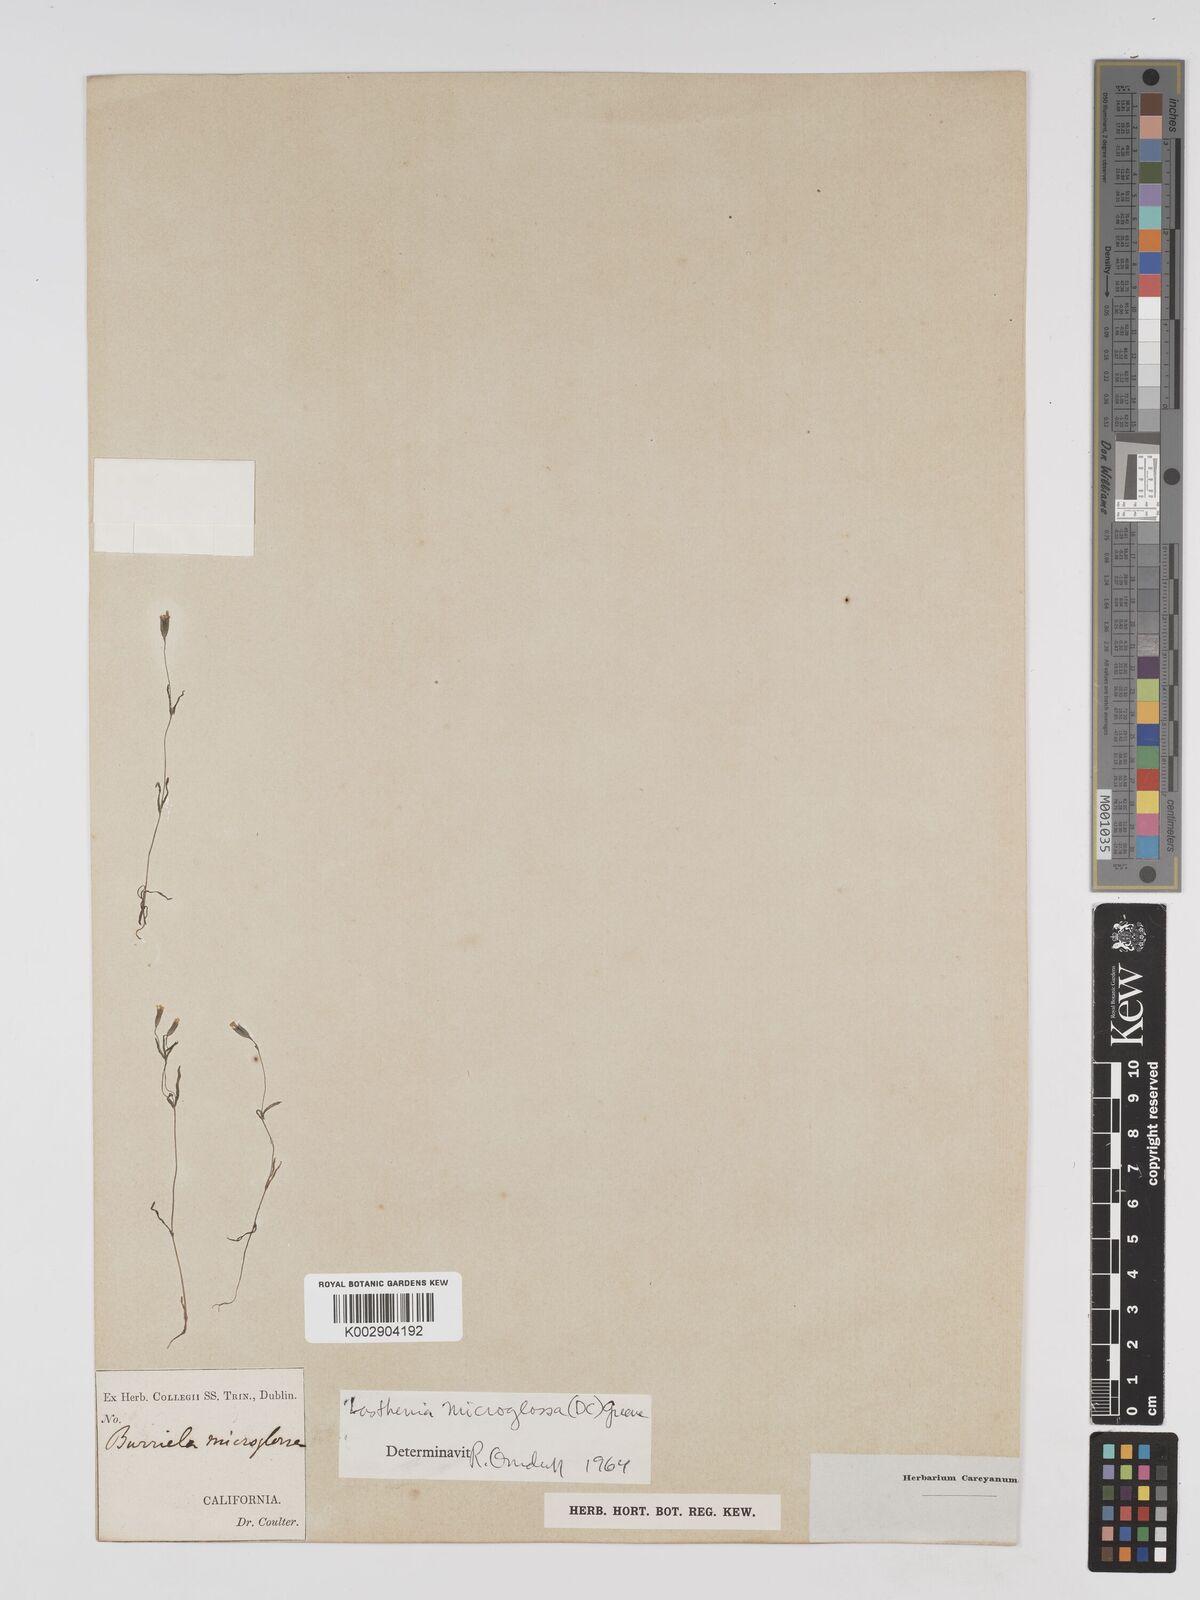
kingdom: Plantae
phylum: Tracheophyta
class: Magnoliopsida
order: Asterales
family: Asteraceae
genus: Lasthenia
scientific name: Lasthenia microglossa
